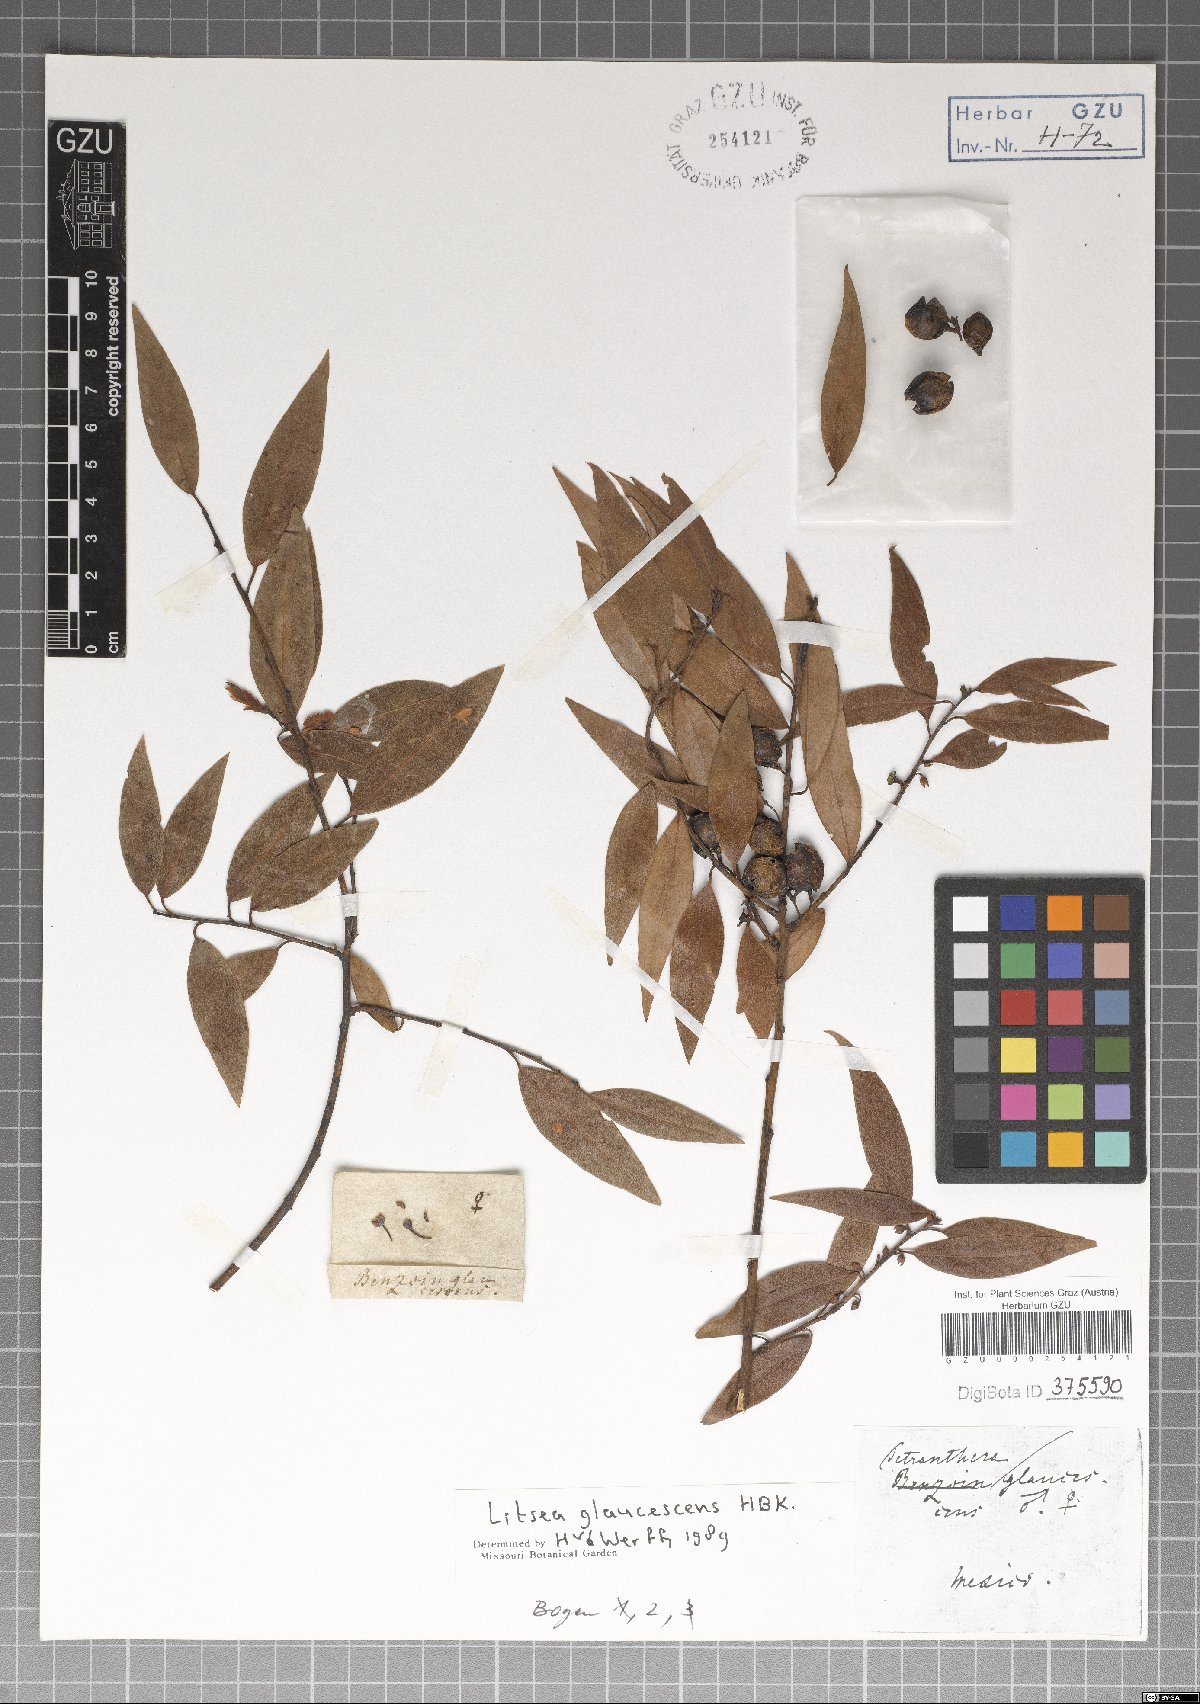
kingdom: Plantae
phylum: Tracheophyta
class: Magnoliopsida
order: Laurales
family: Lauraceae
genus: Licaria
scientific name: Licaria triandra
